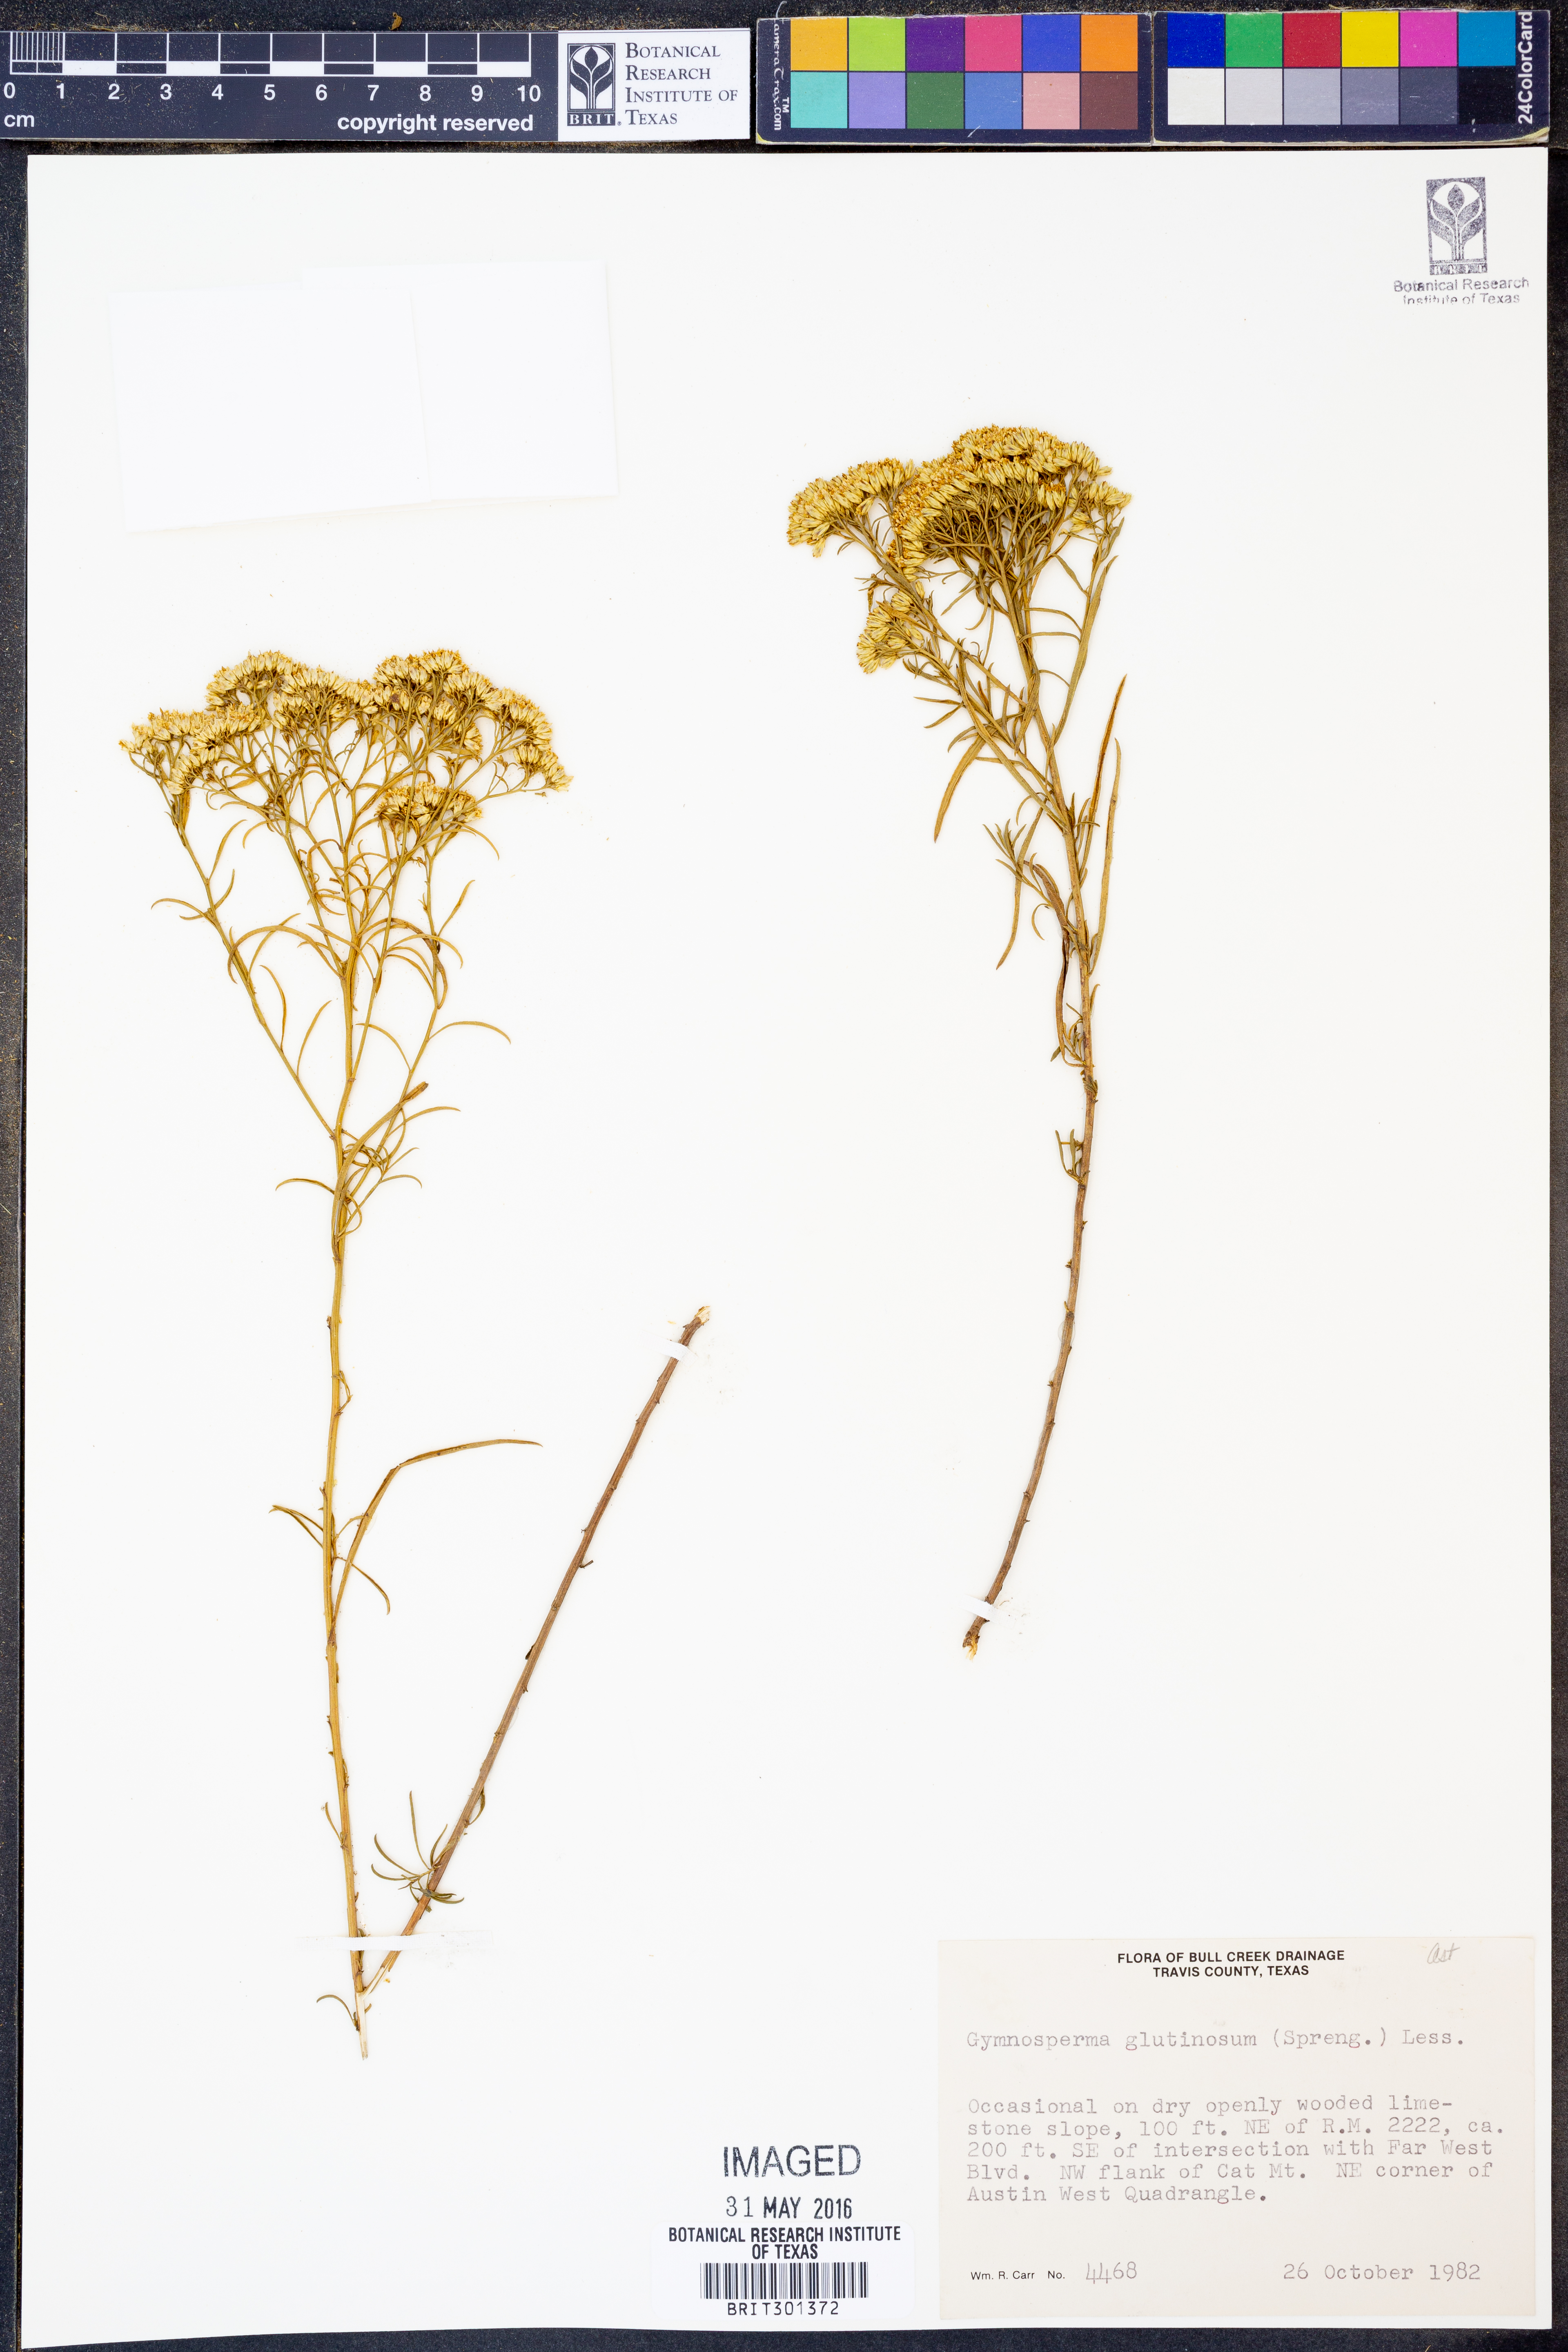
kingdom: Plantae
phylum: Tracheophyta
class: Magnoliopsida
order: Asterales
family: Asteraceae
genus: Gymnosperma
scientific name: Gymnosperma glutinosum
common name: Gumhead
